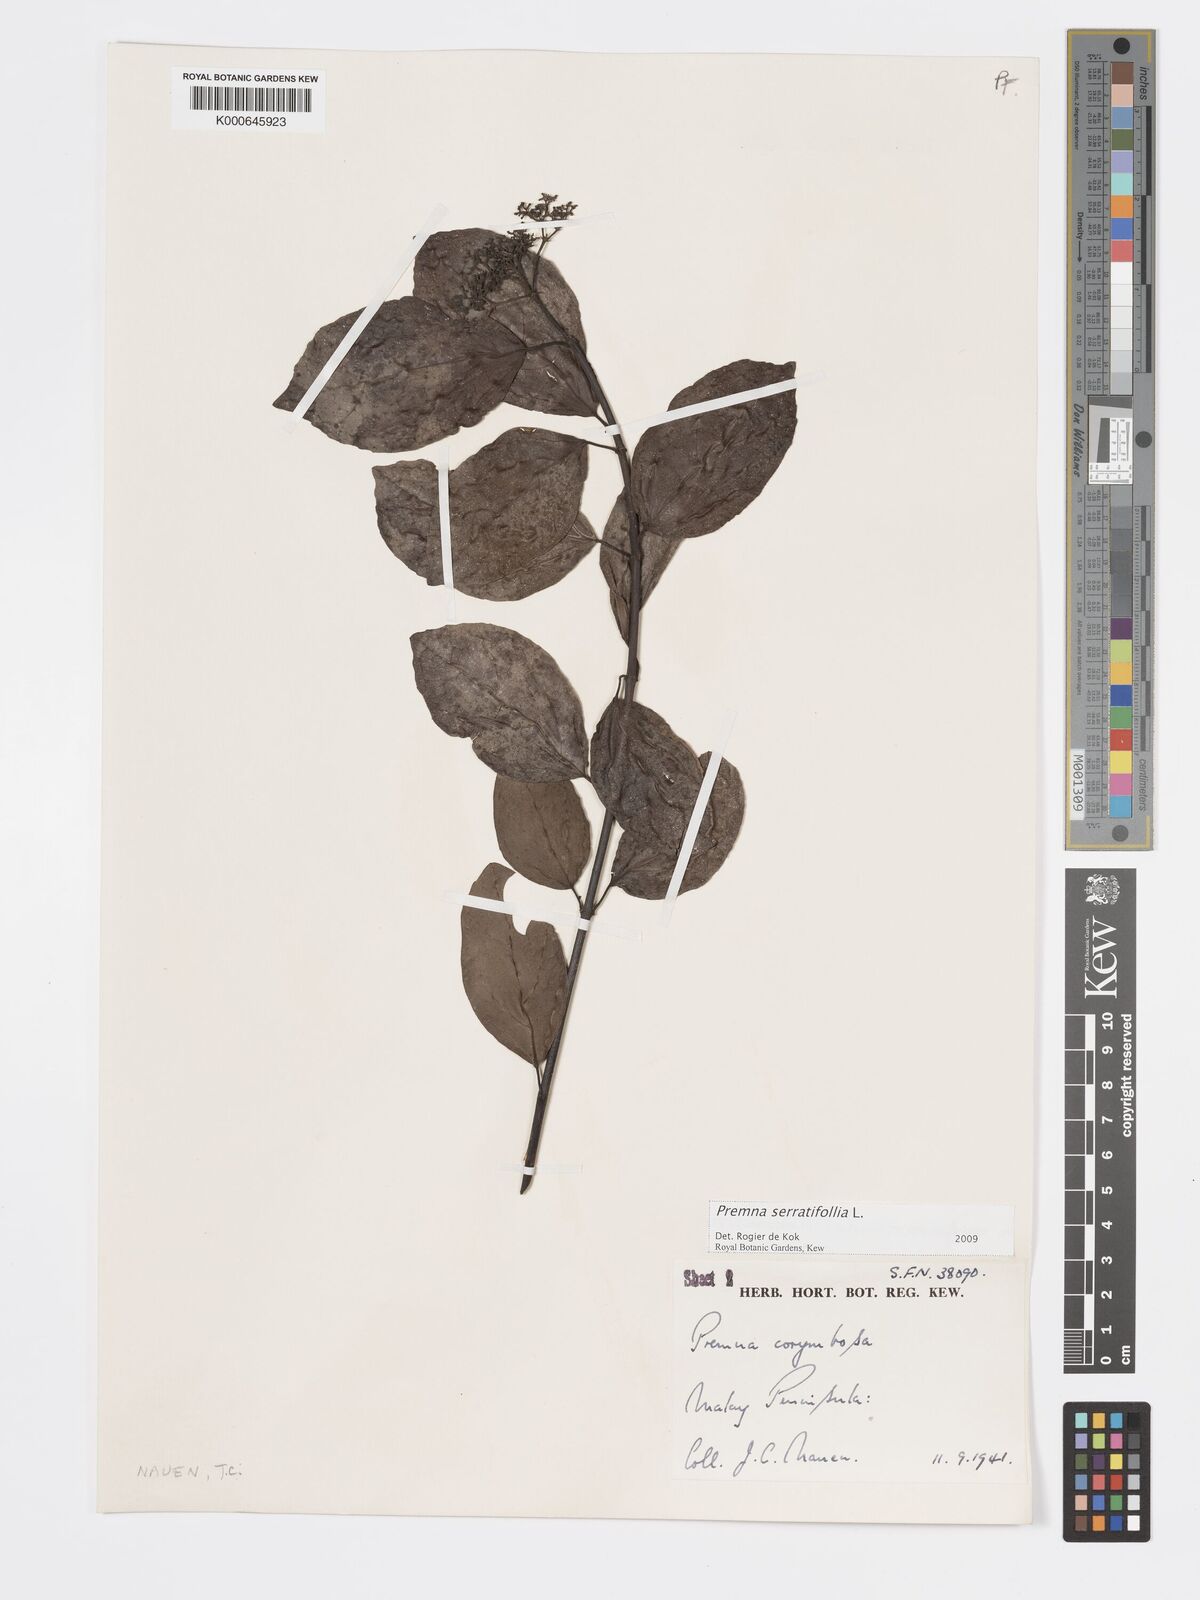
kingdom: Plantae
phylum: Tracheophyta
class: Magnoliopsida
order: Lamiales
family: Lamiaceae
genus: Premna
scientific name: Premna serratifolia
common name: Bastard guelder
